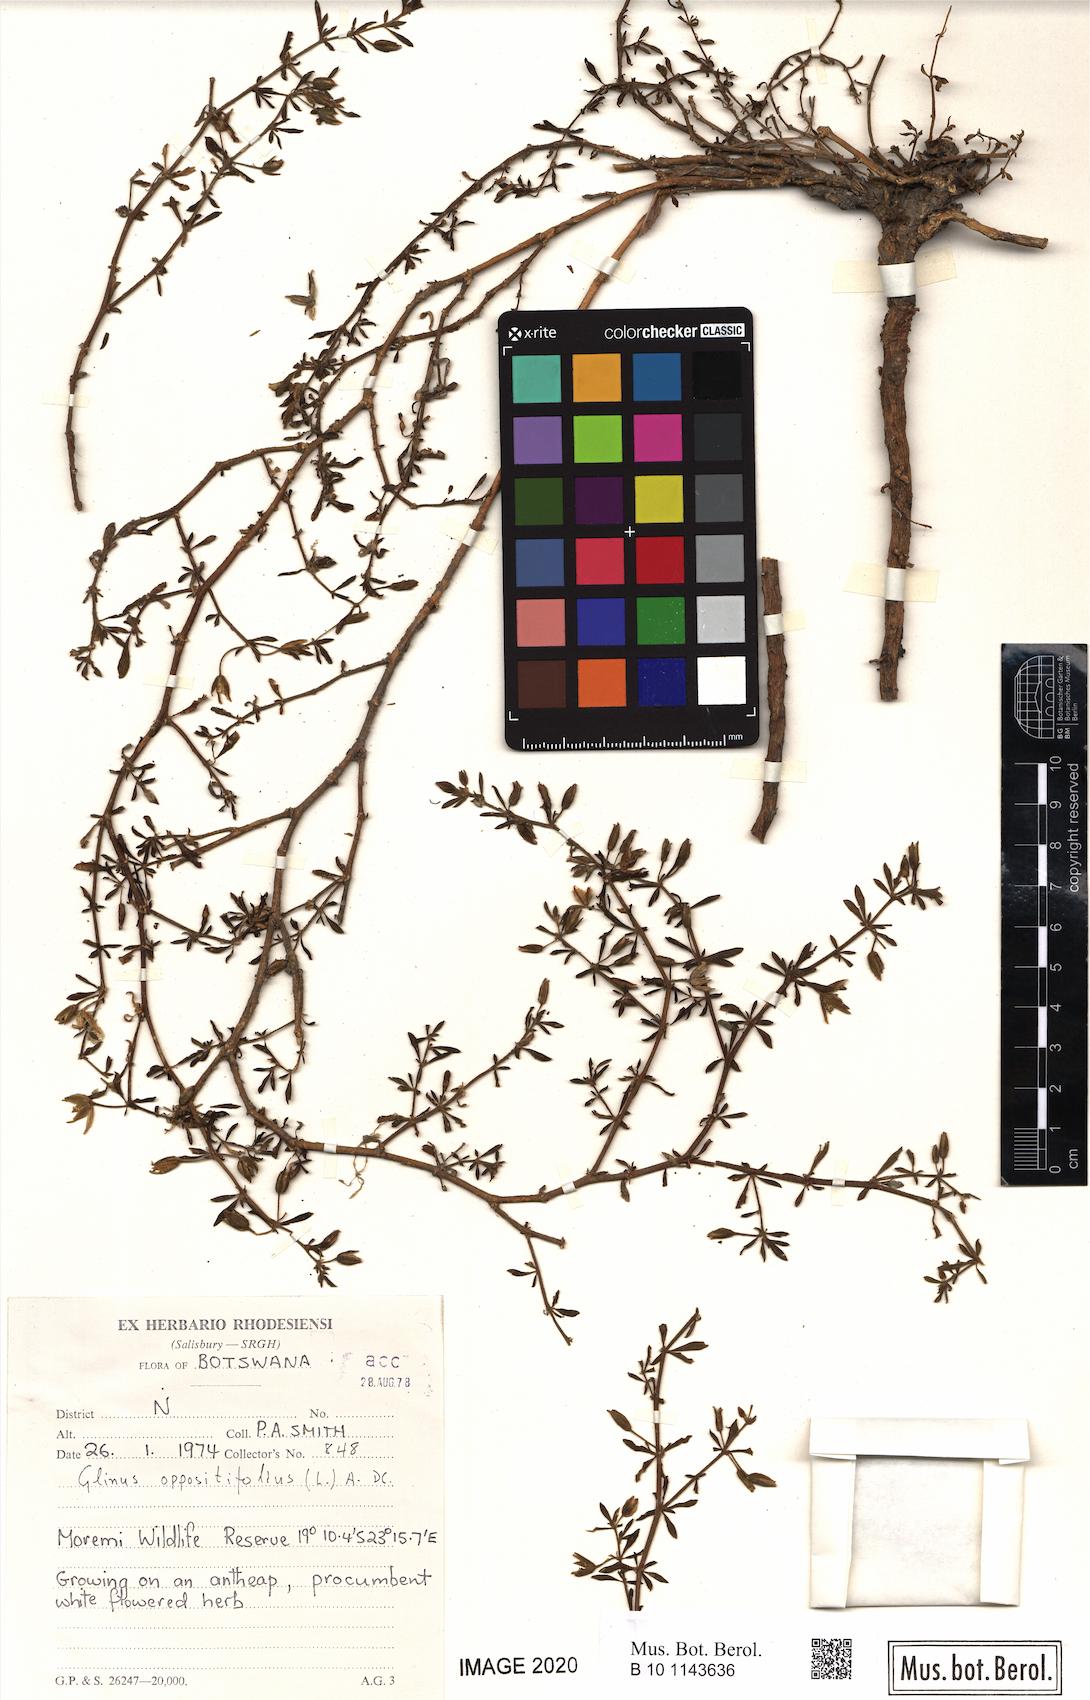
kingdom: Plantae
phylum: Tracheophyta
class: Magnoliopsida
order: Caryophyllales
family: Molluginaceae
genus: Glinus
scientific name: Glinus bainesii
